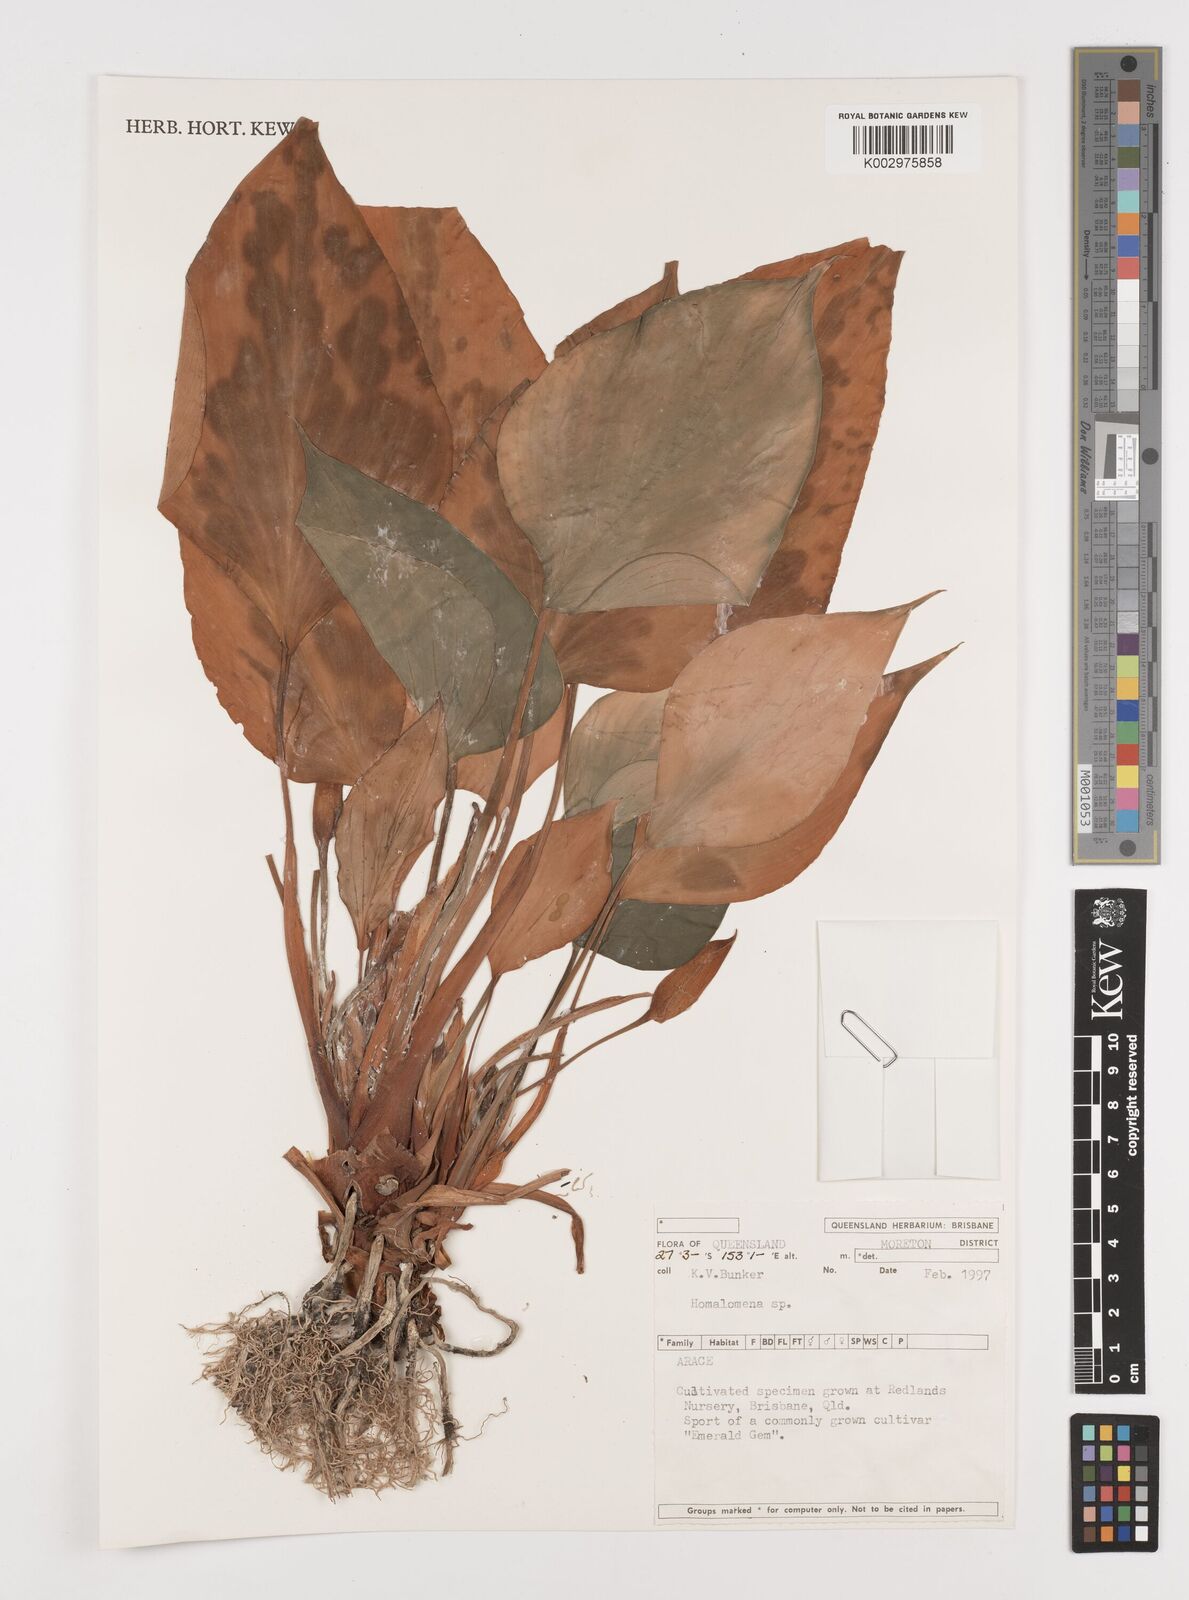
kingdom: Plantae
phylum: Tracheophyta
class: Liliopsida
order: Alismatales
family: Araceae
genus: Homalomena
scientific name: Homalomena
